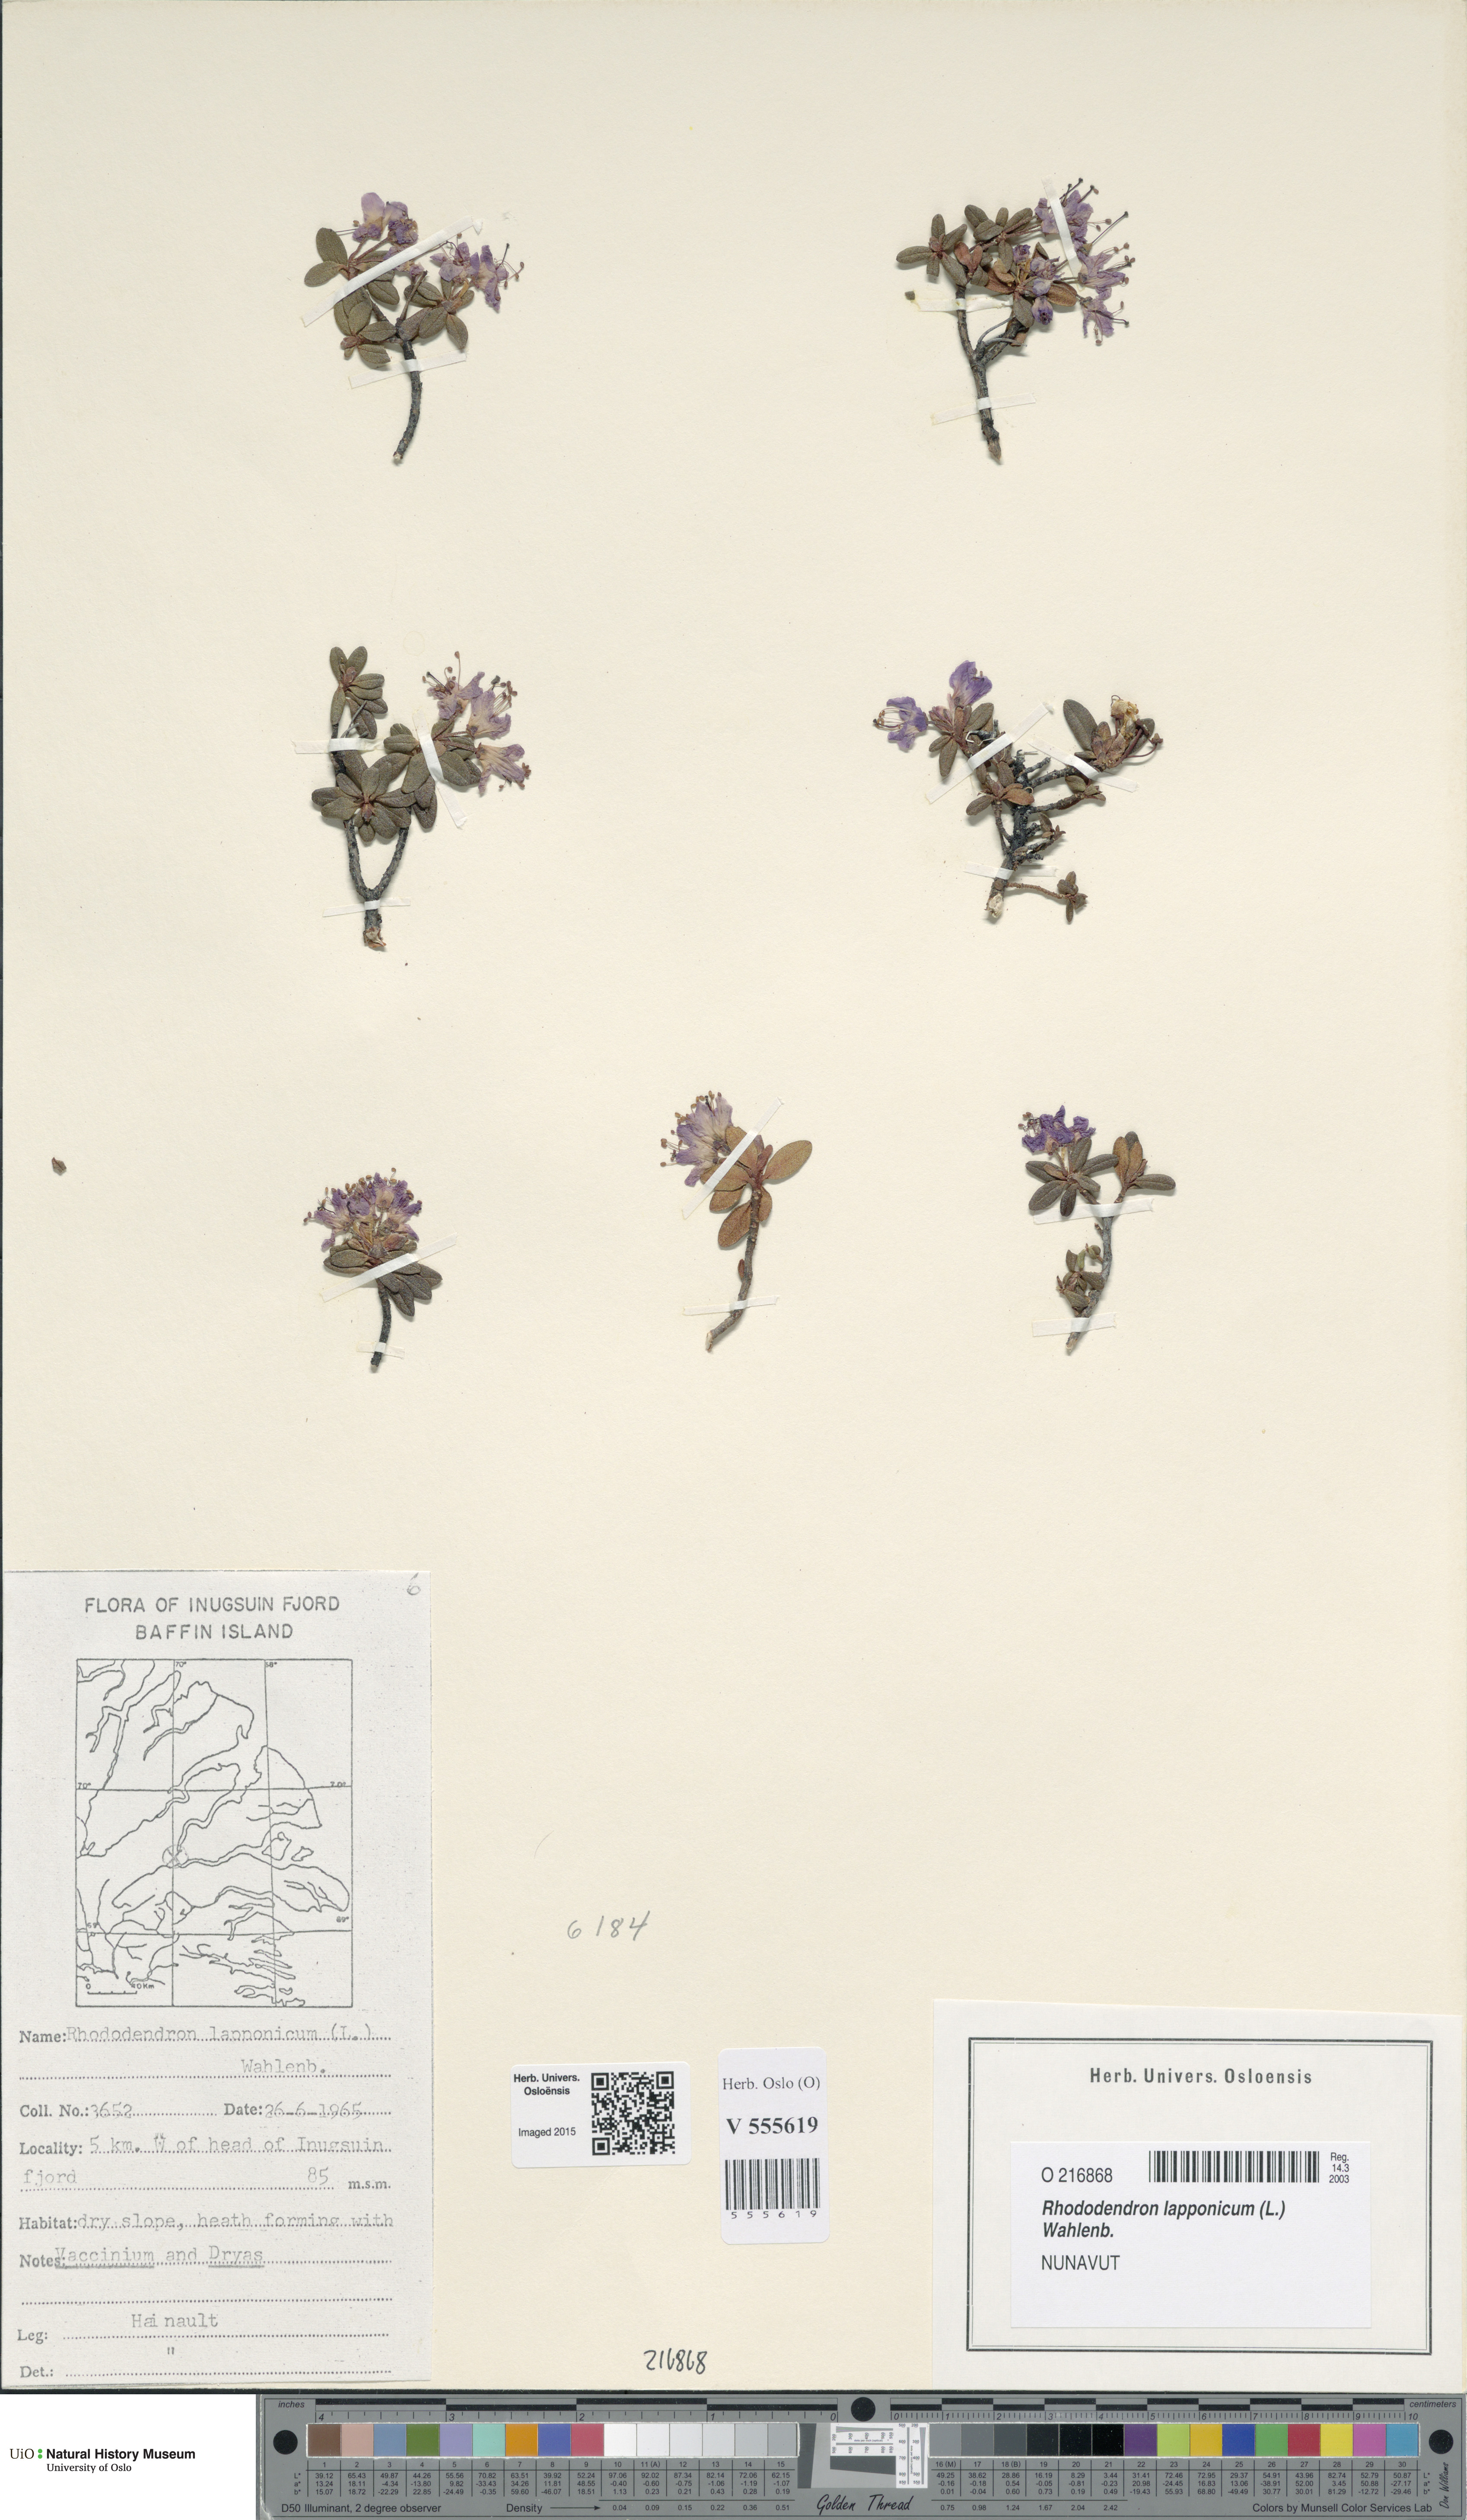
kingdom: Plantae
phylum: Tracheophyta
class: Magnoliopsida
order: Ericales
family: Ericaceae
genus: Rhododendron
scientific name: Rhododendron lapponicum
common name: Lapland rhododendron
